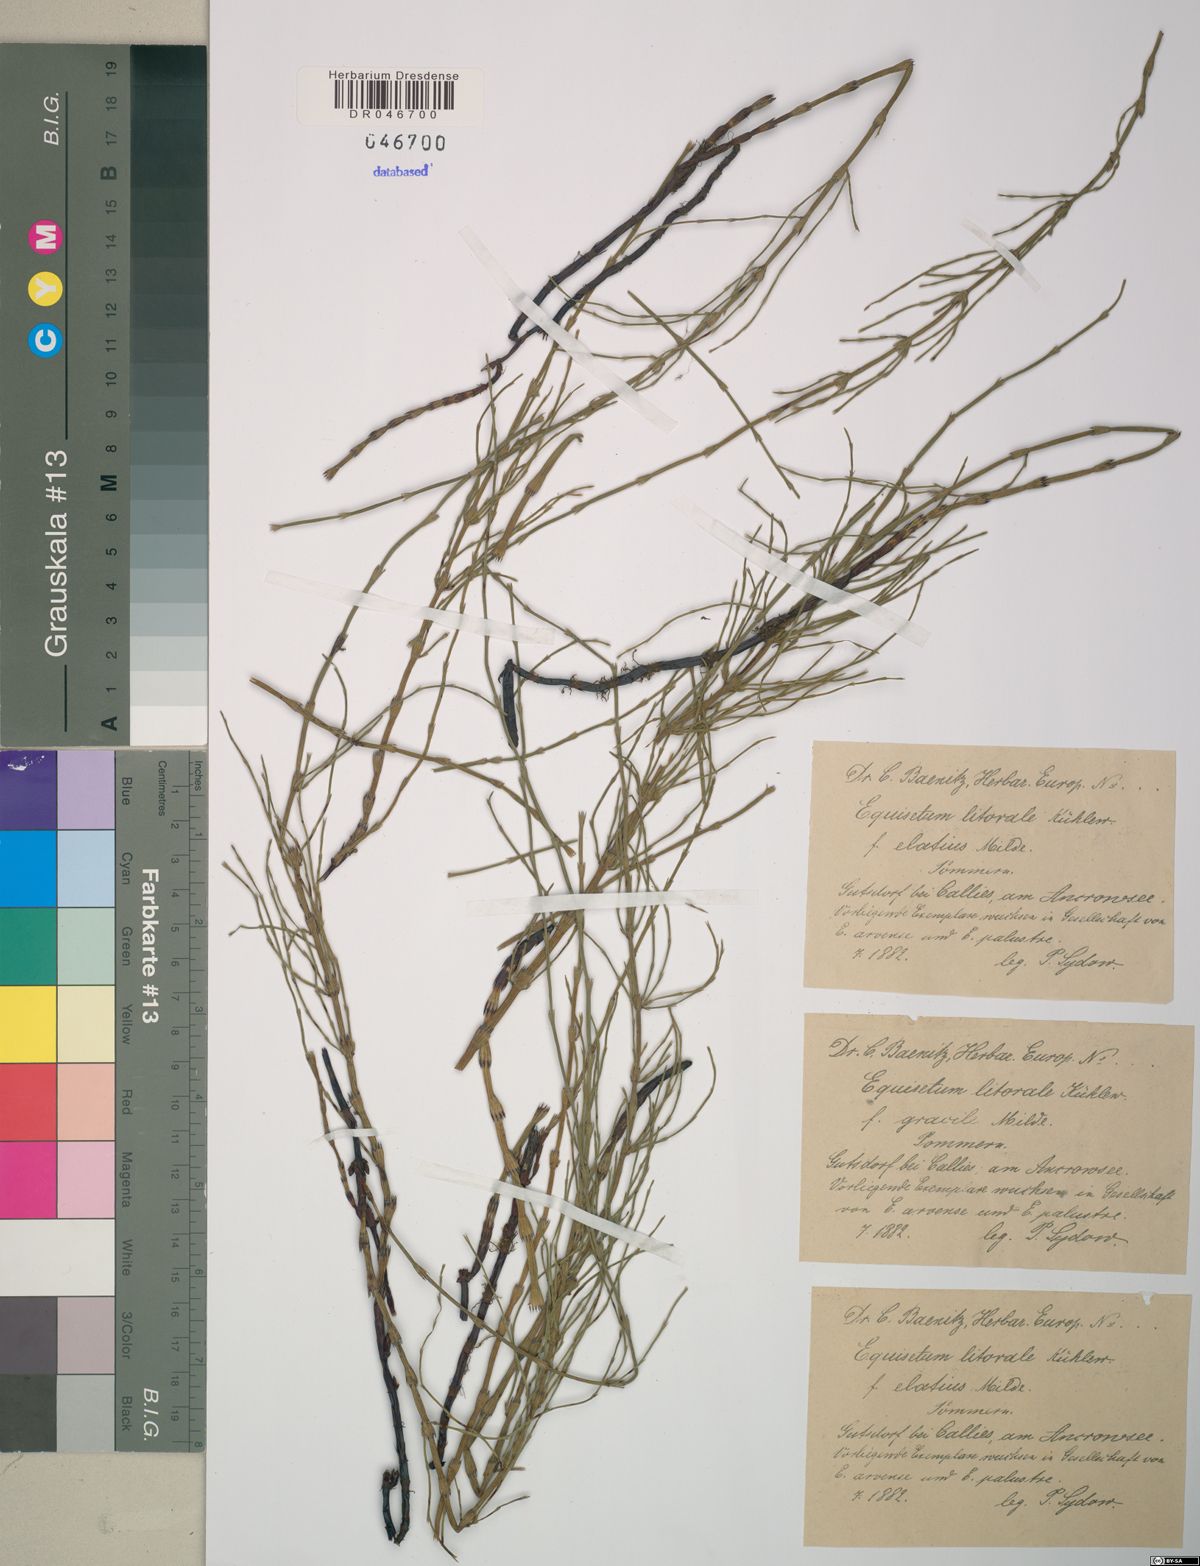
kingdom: Plantae
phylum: Tracheophyta
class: Polypodiopsida
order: Equisetales
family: Equisetaceae
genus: Equisetum
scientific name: Equisetum litorale
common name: Littoral horsetail
